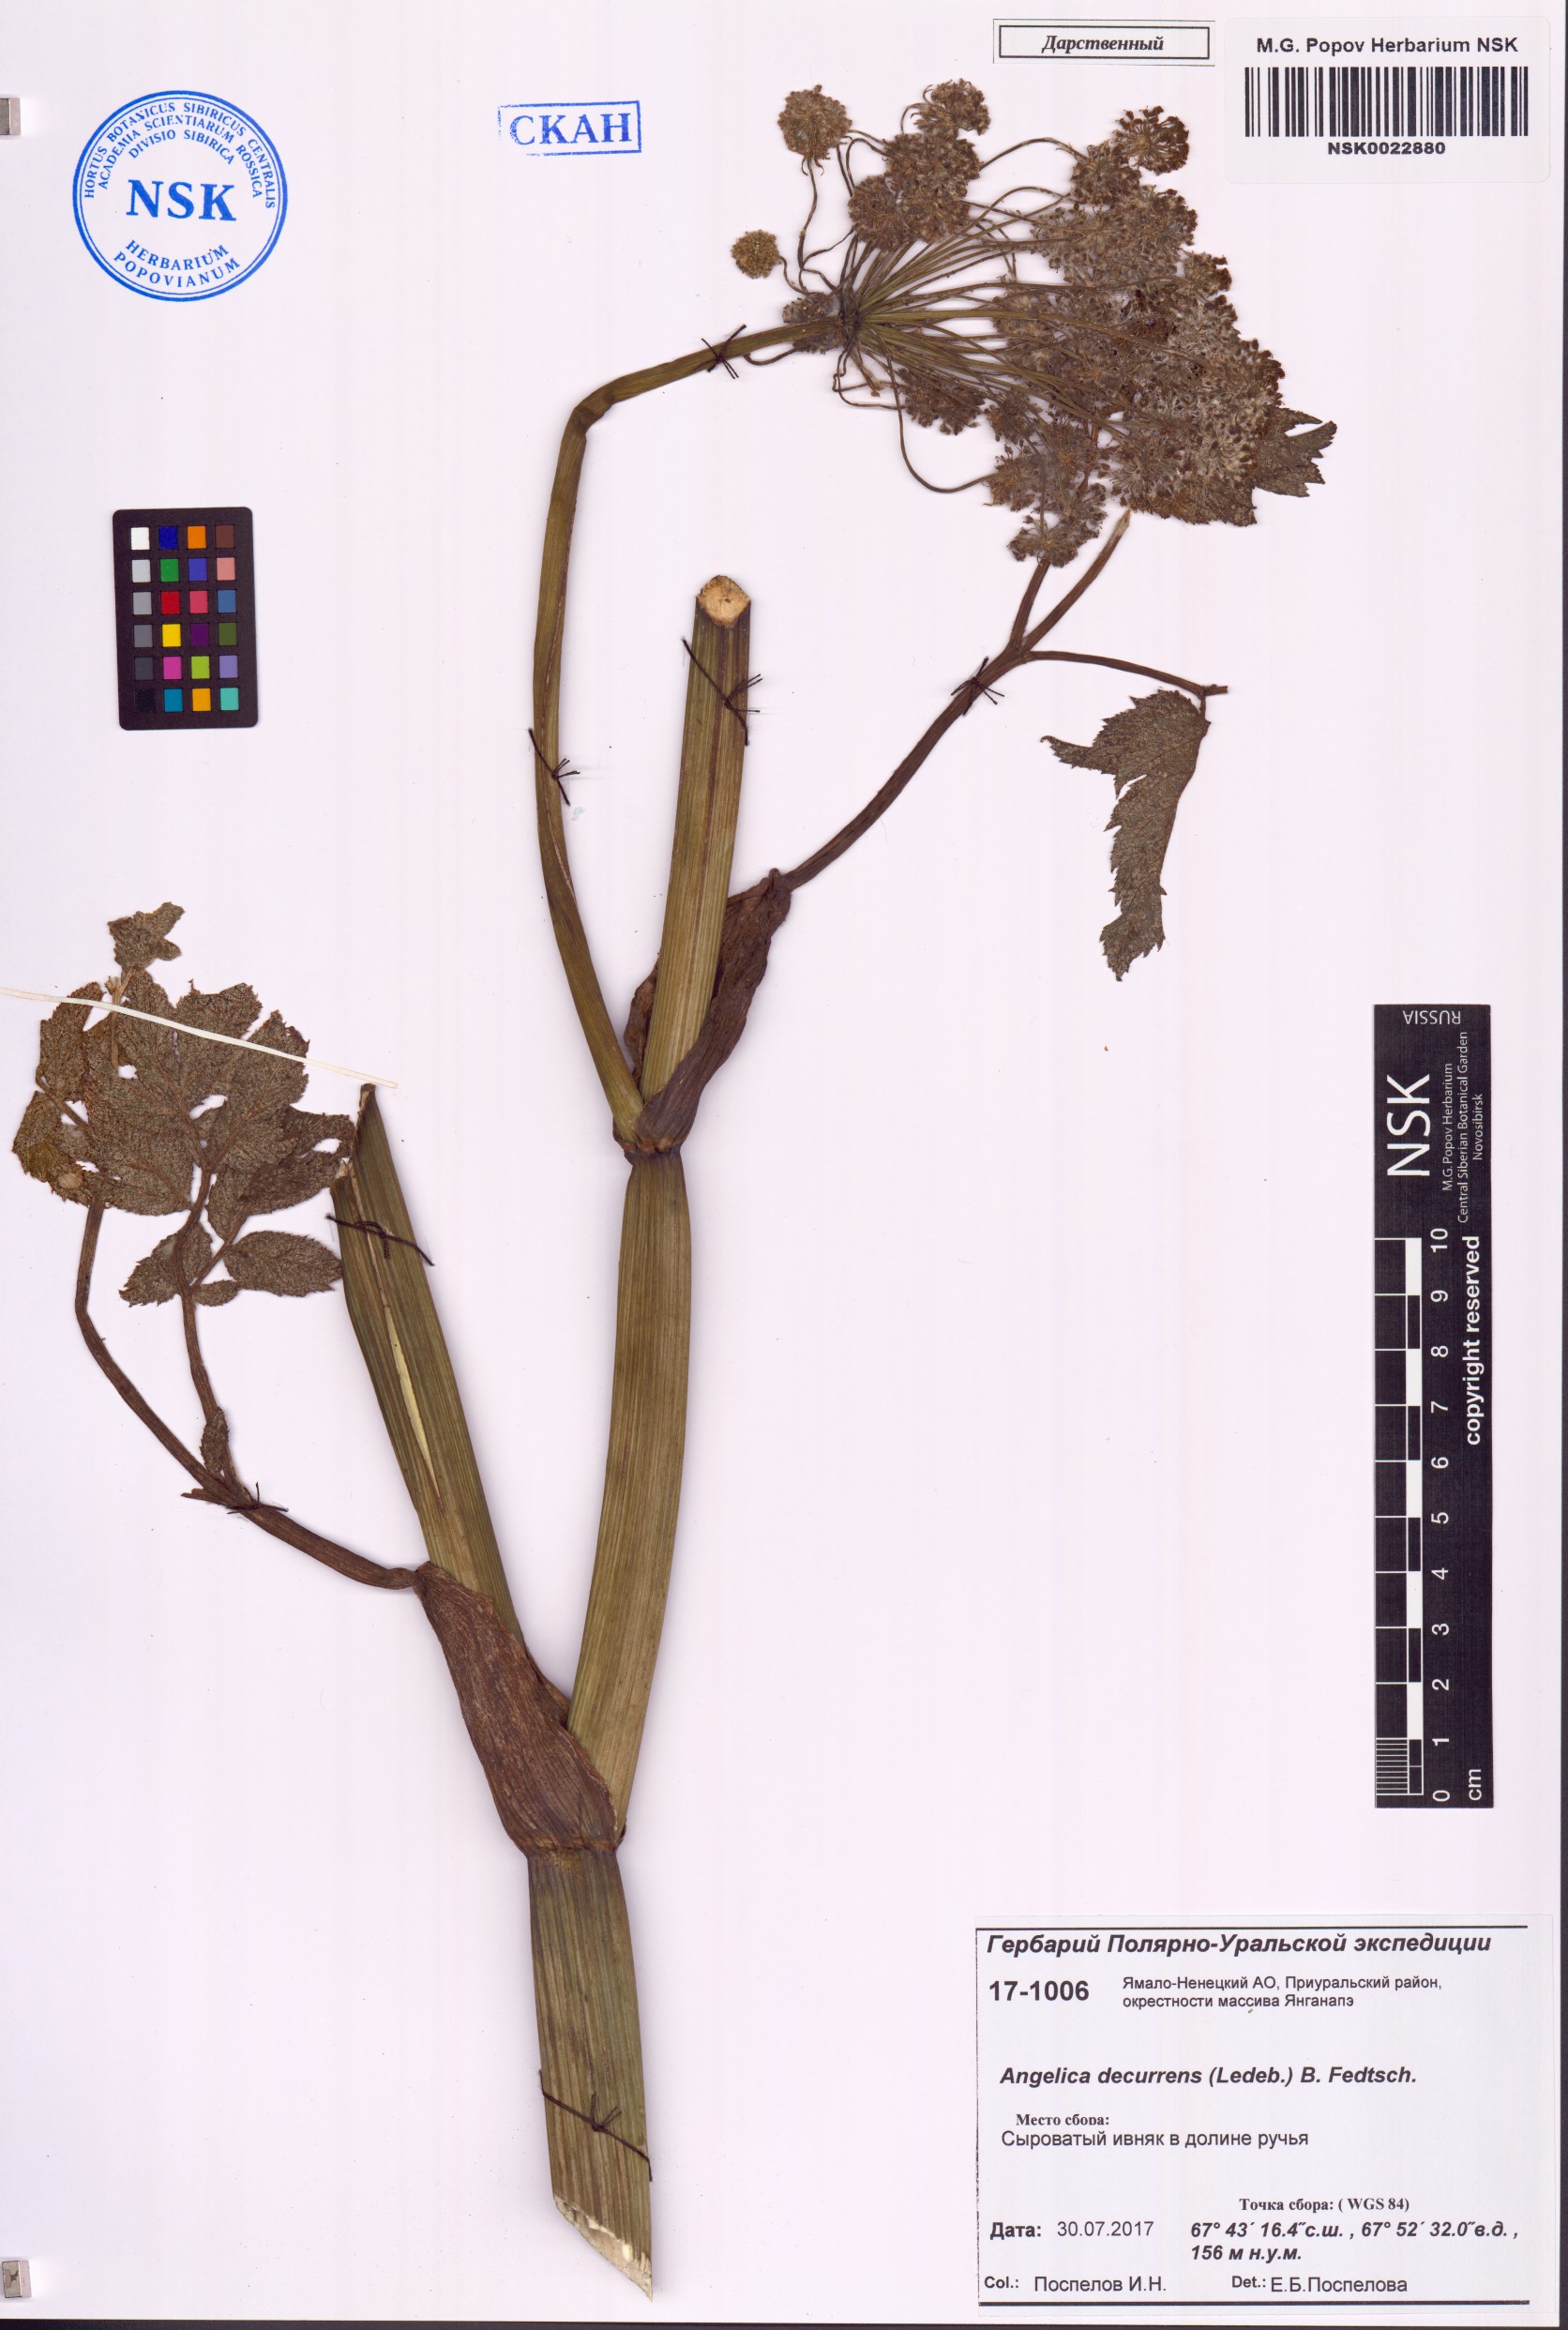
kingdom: Plantae
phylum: Tracheophyta
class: Magnoliopsida
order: Apiales
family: Apiaceae
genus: Angelica
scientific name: Angelica decurrens
